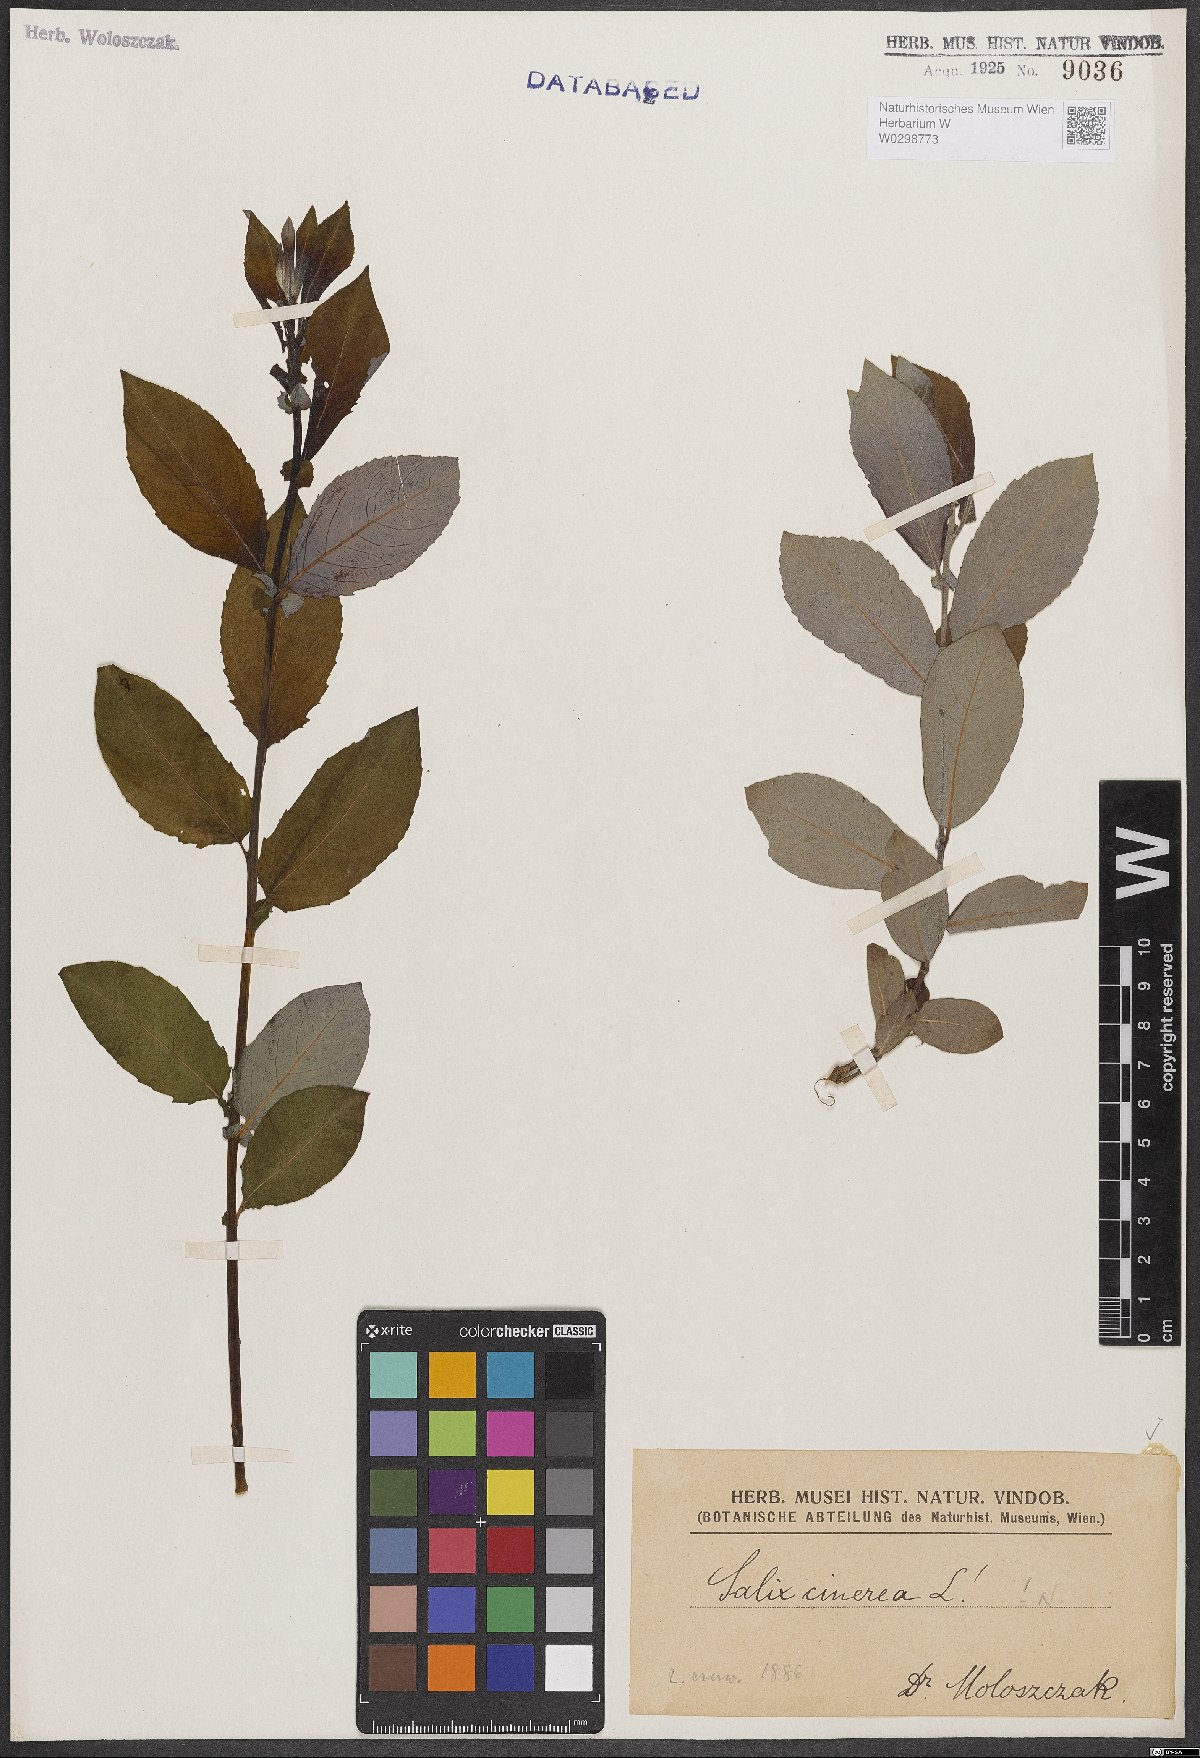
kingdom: Plantae
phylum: Tracheophyta
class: Magnoliopsida
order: Malpighiales
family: Salicaceae
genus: Salix
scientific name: Salix cinerea
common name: Common sallow
